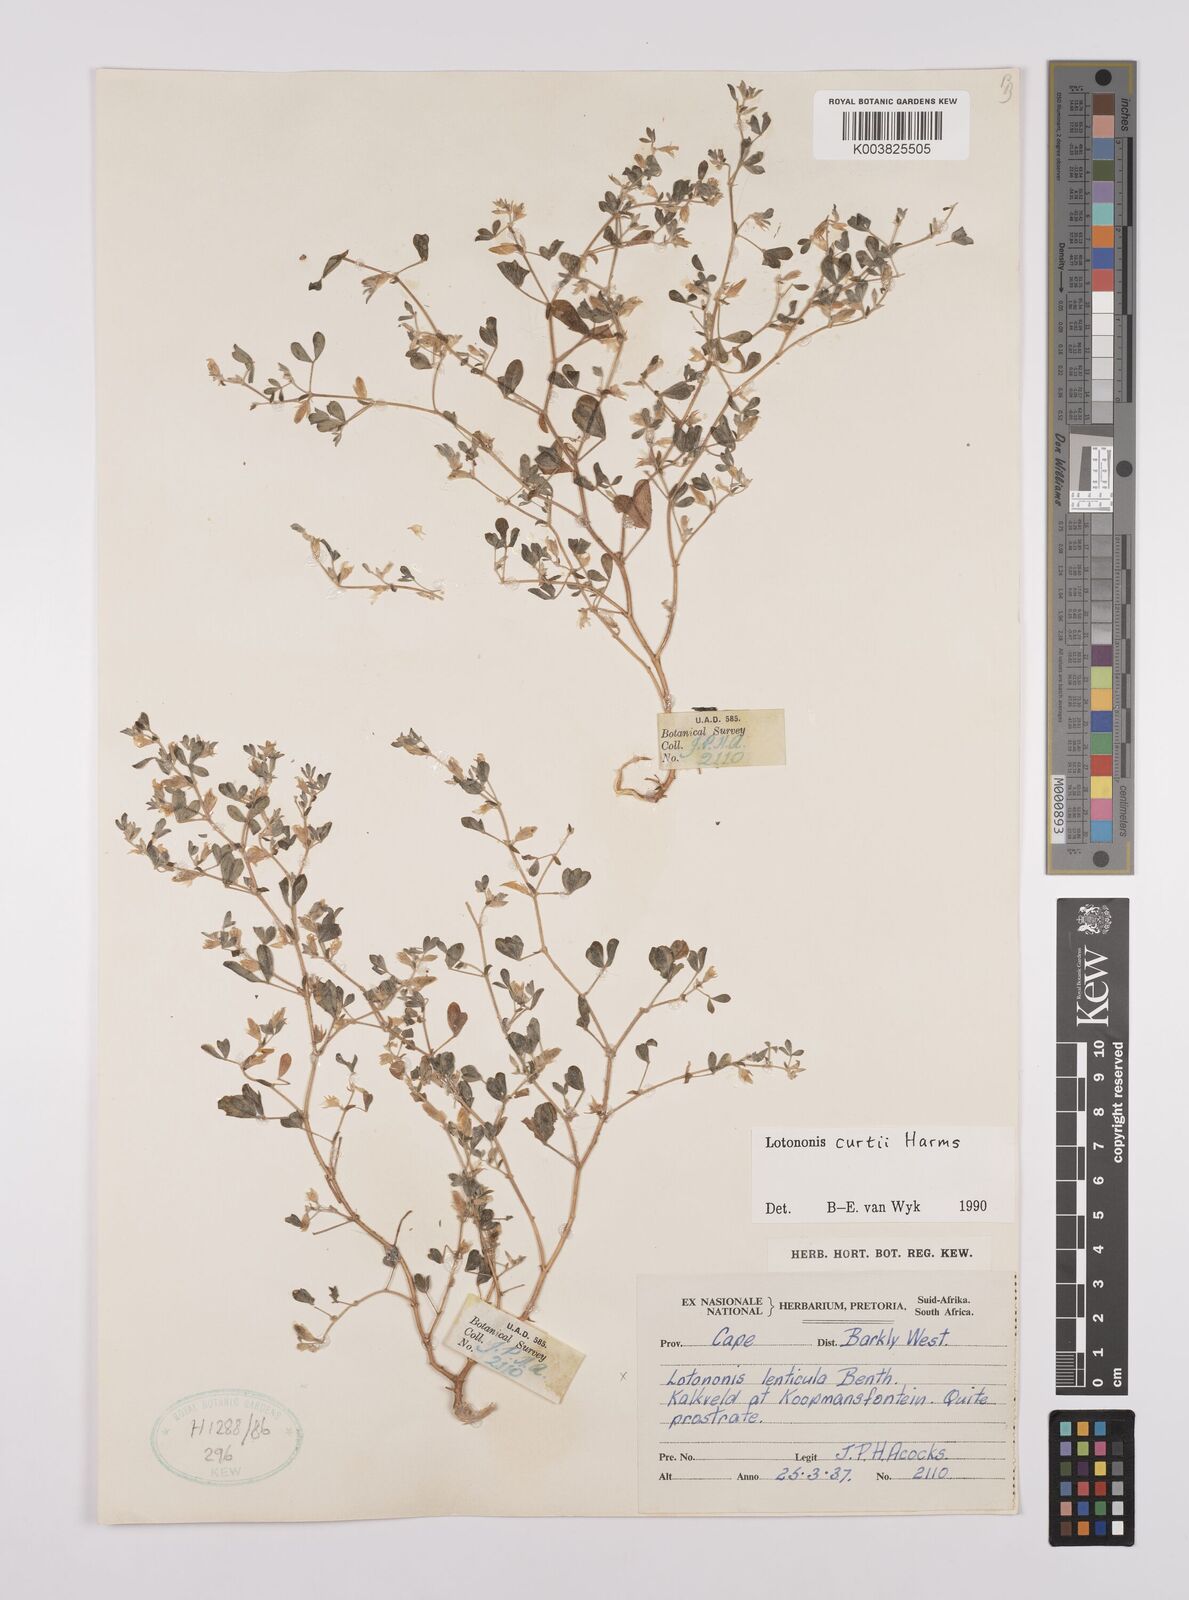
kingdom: Plantae
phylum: Tracheophyta
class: Magnoliopsida
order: Fabales
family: Fabaceae
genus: Lotononis
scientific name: Lotononis curtii
